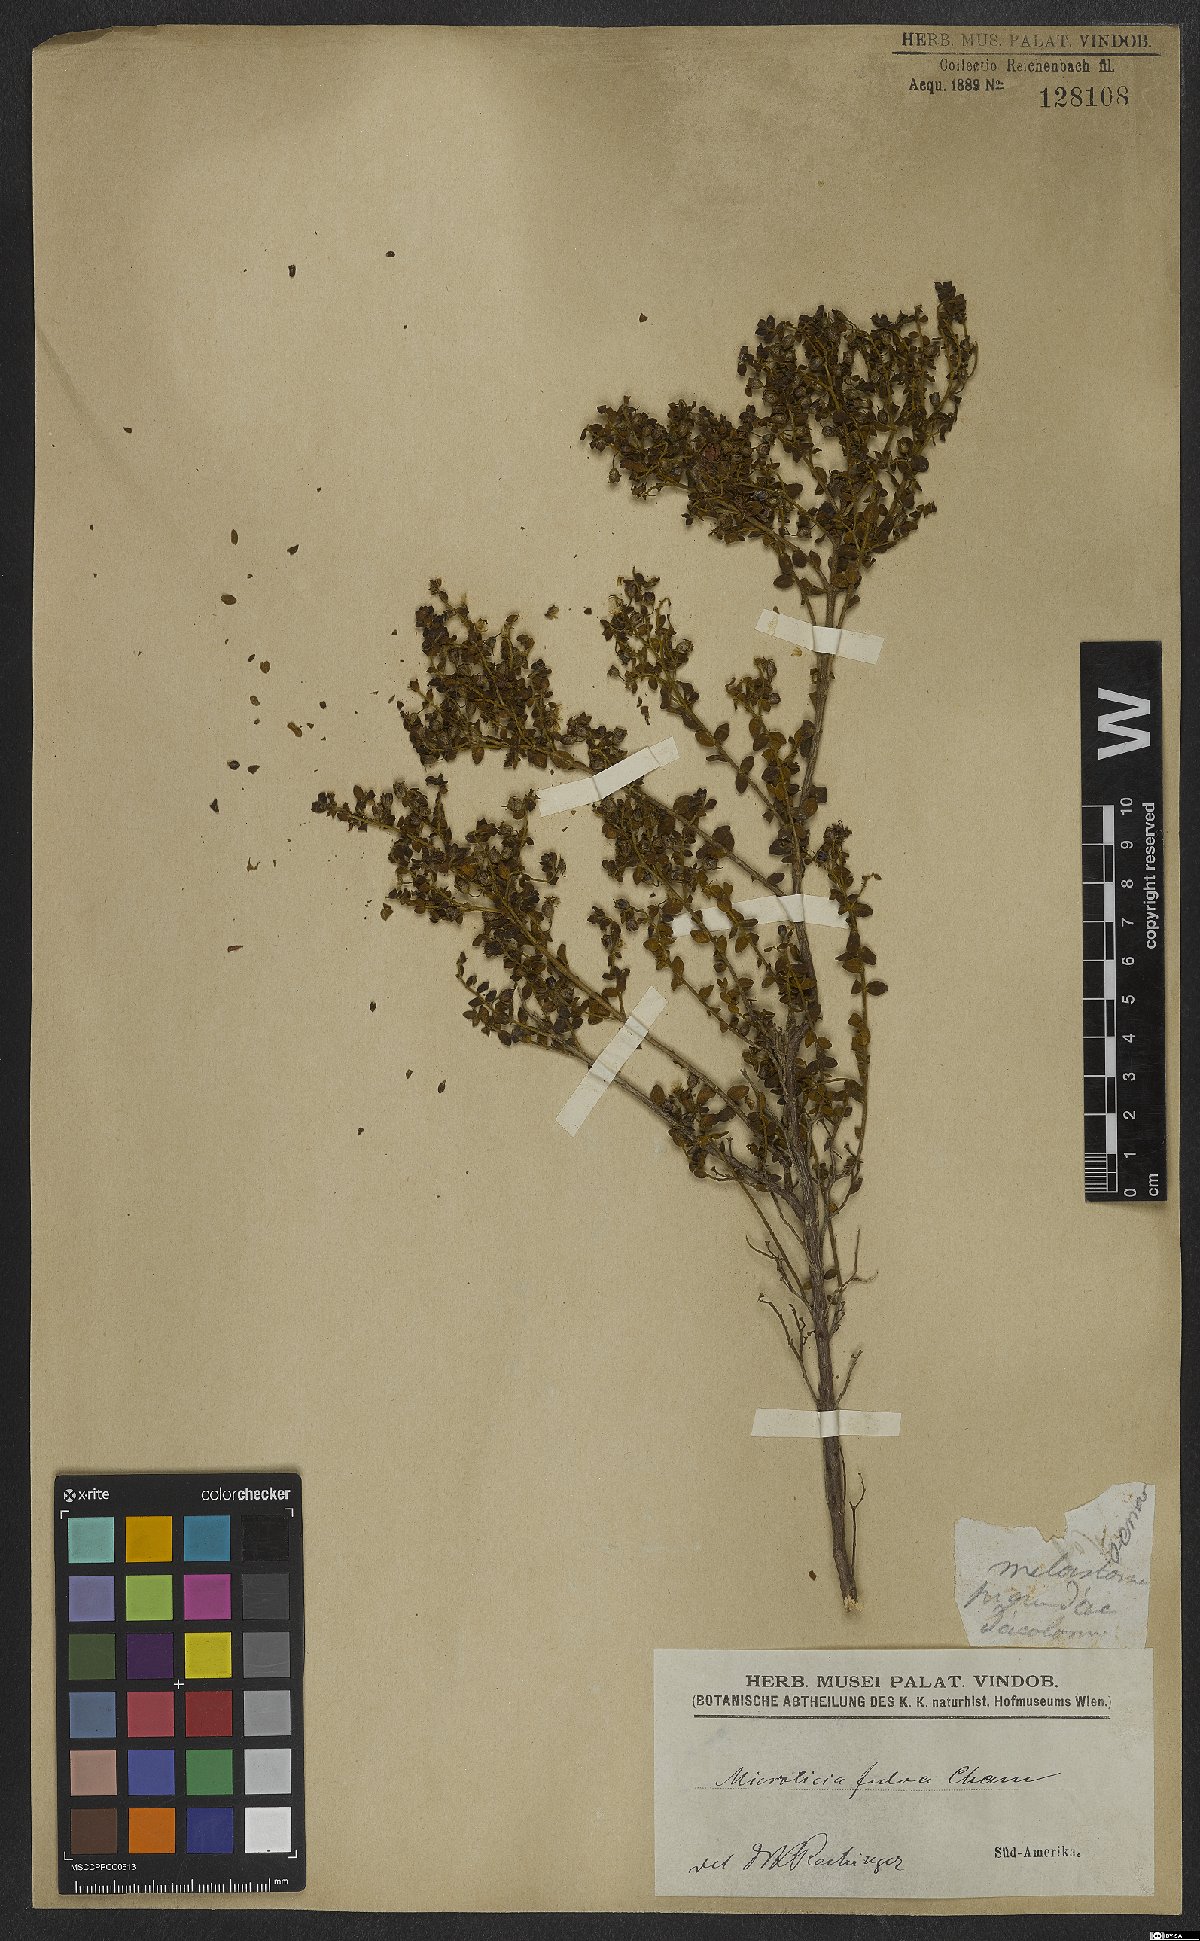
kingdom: Plantae
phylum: Tracheophyta
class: Magnoliopsida
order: Myrtales
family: Melastomataceae
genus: Microlicia
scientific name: Microlicia fulva
